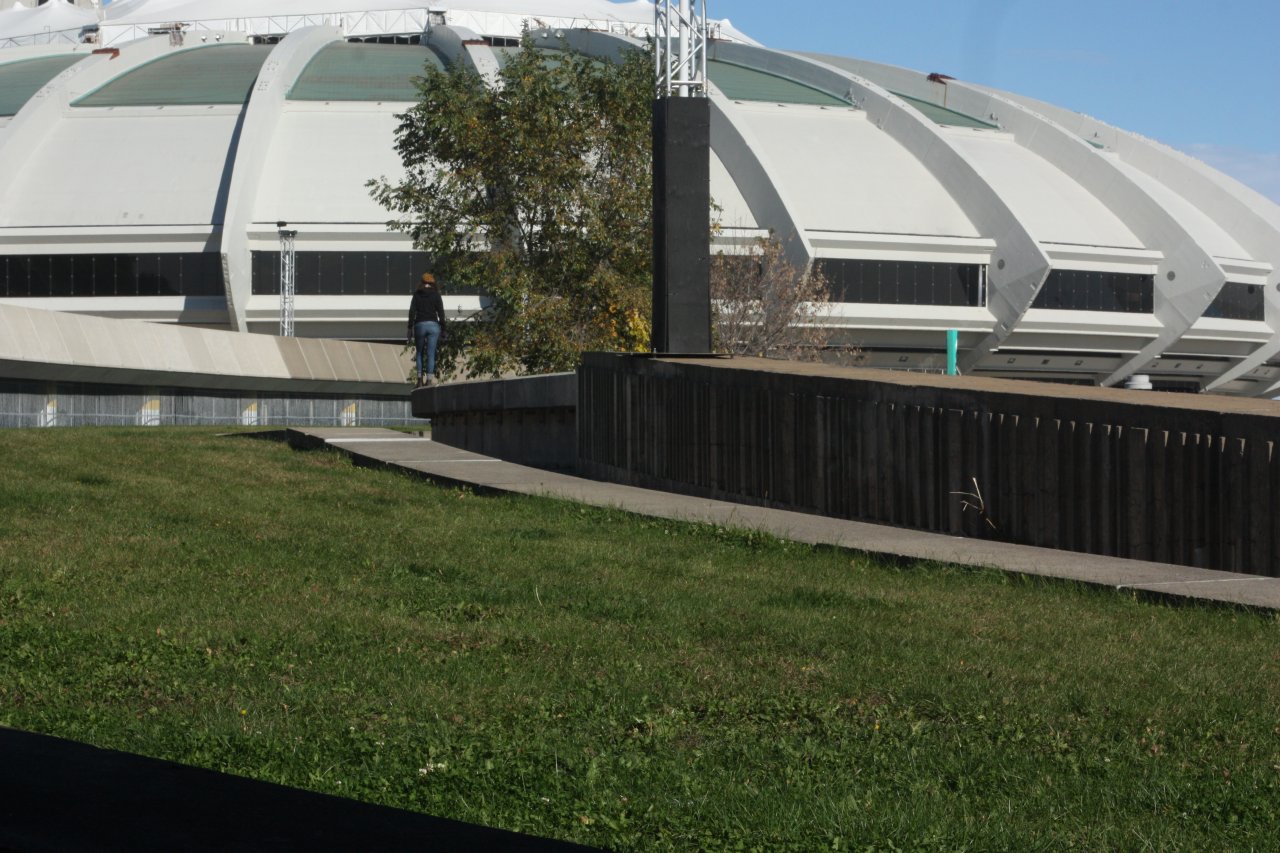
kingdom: Animalia
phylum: Arthropoda
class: Insecta
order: Lepidoptera
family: Pieridae
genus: Colias
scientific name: Colias philodice
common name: Clouded Sulphur
